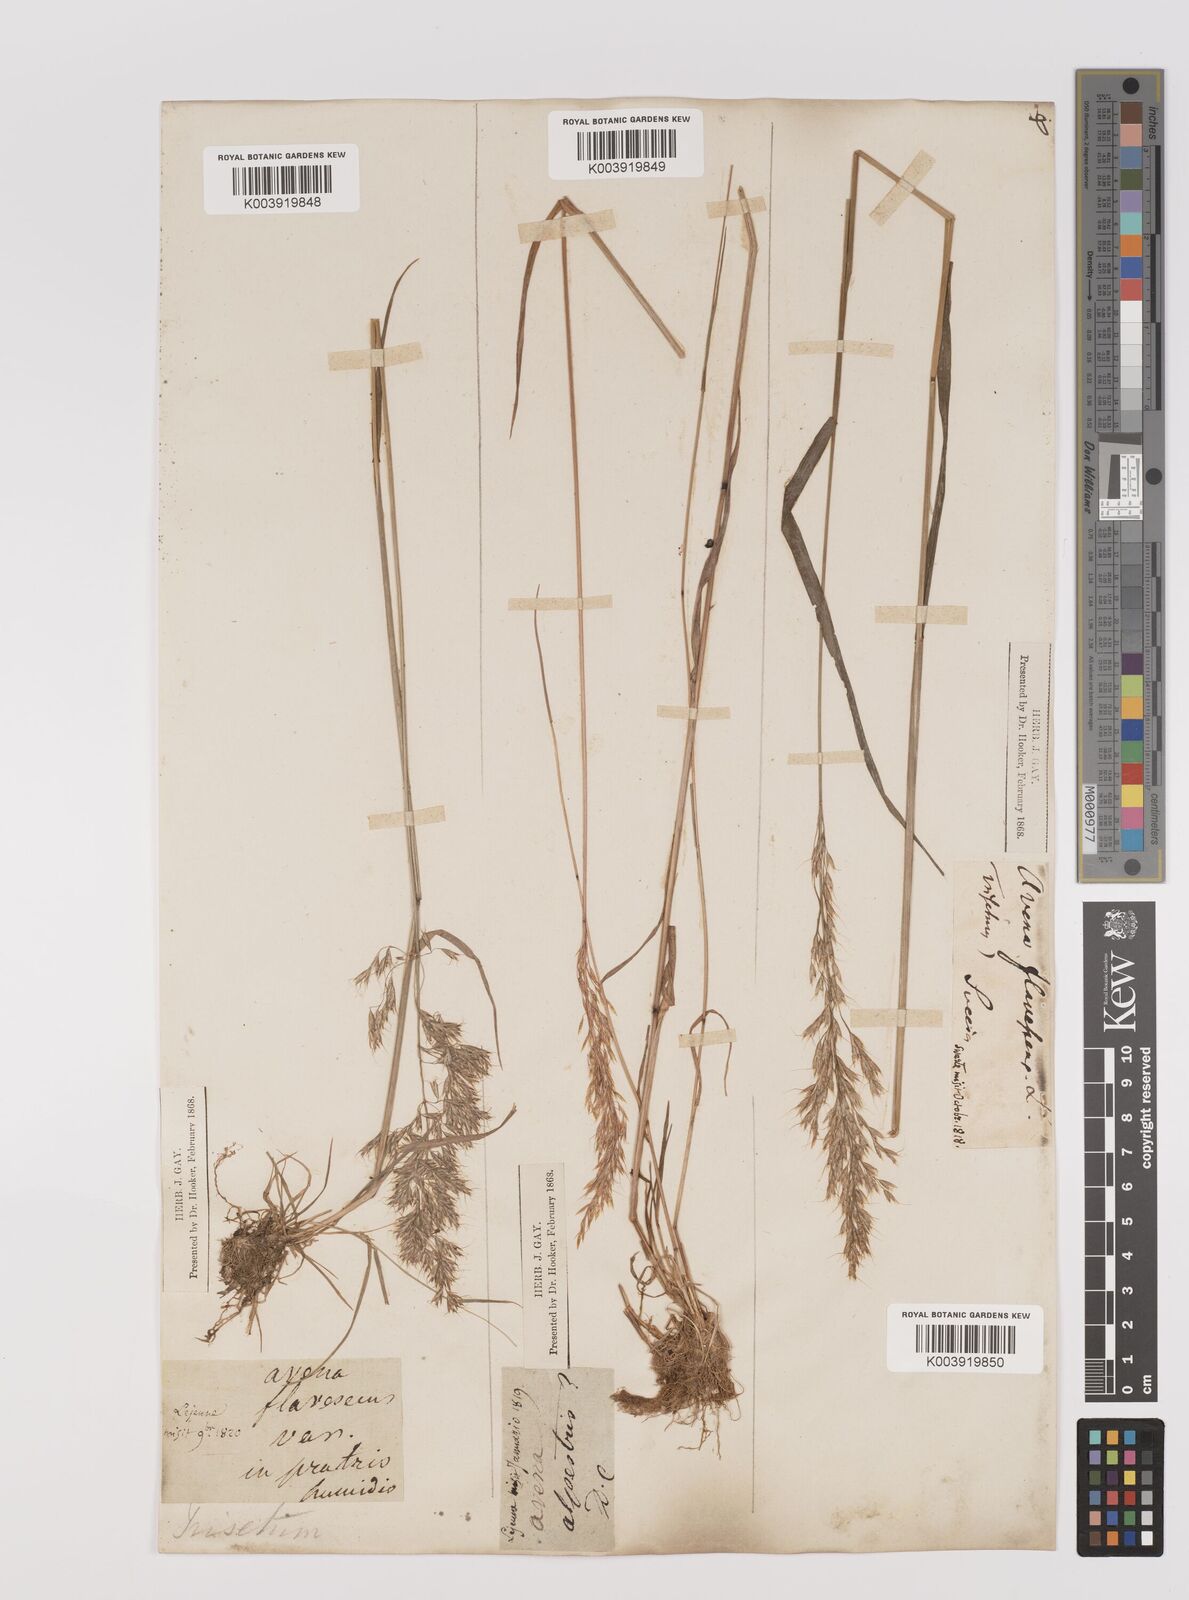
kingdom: Plantae
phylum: Tracheophyta
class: Liliopsida
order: Poales
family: Poaceae
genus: Trisetum
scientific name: Trisetum flavescens
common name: Yellow oat-grass
